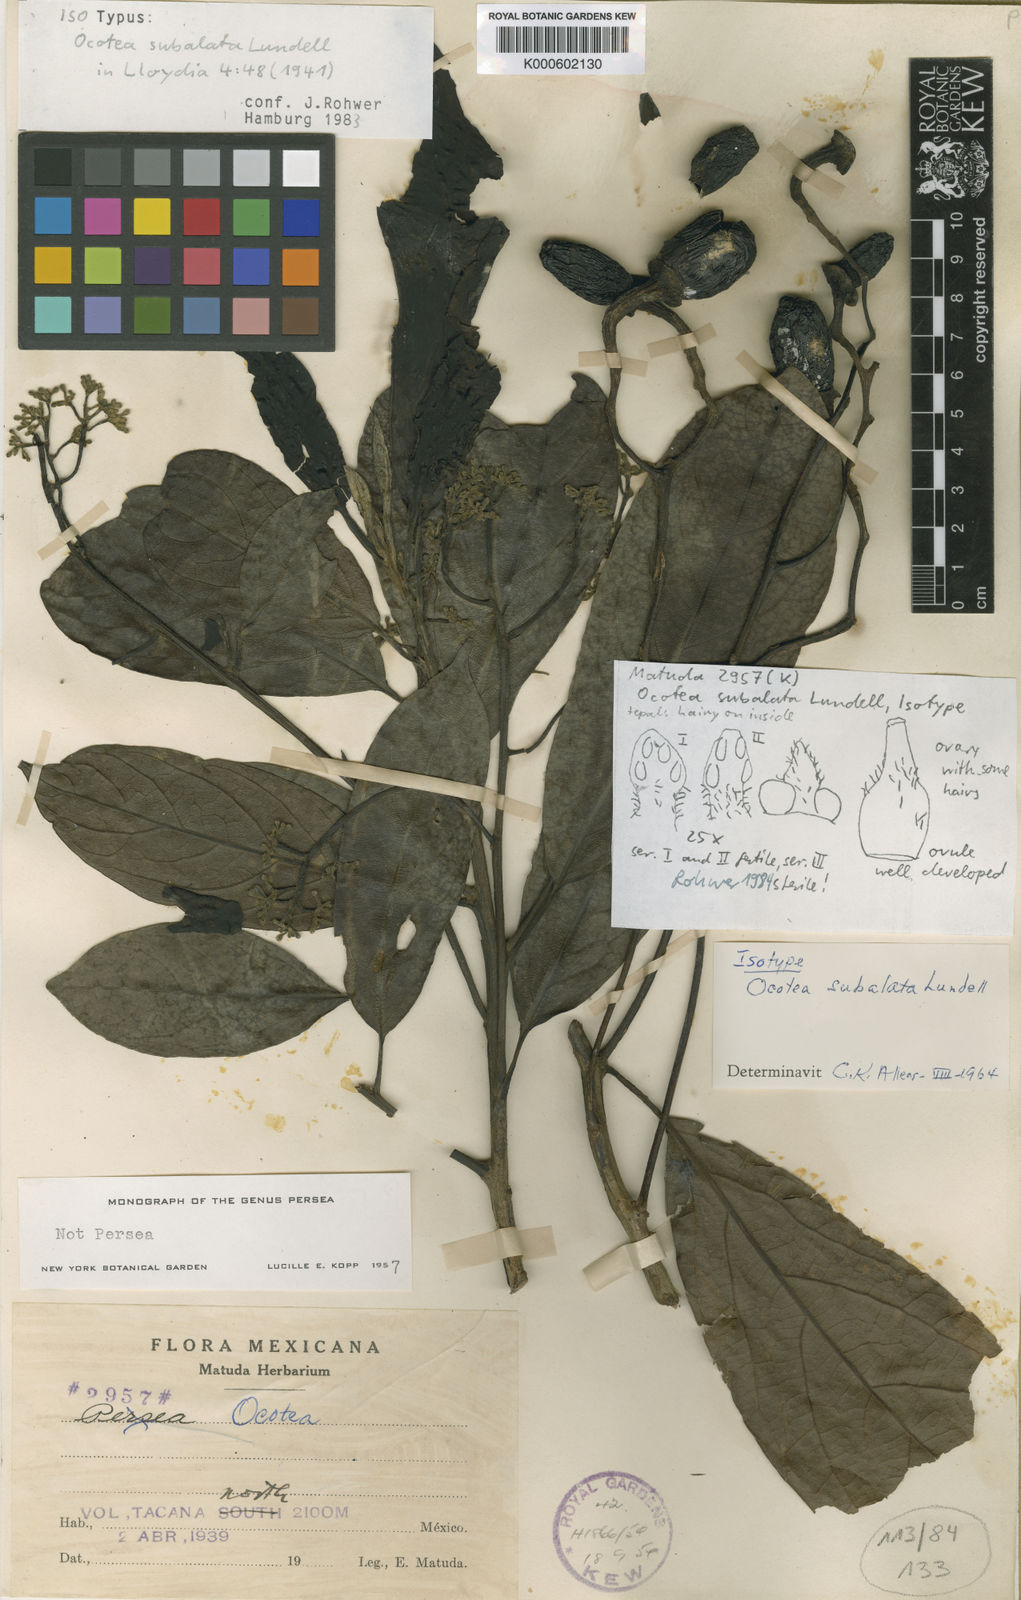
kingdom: Plantae
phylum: Tracheophyta
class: Magnoliopsida
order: Laurales
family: Lauraceae
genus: Ocotea
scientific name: Ocotea subalata
